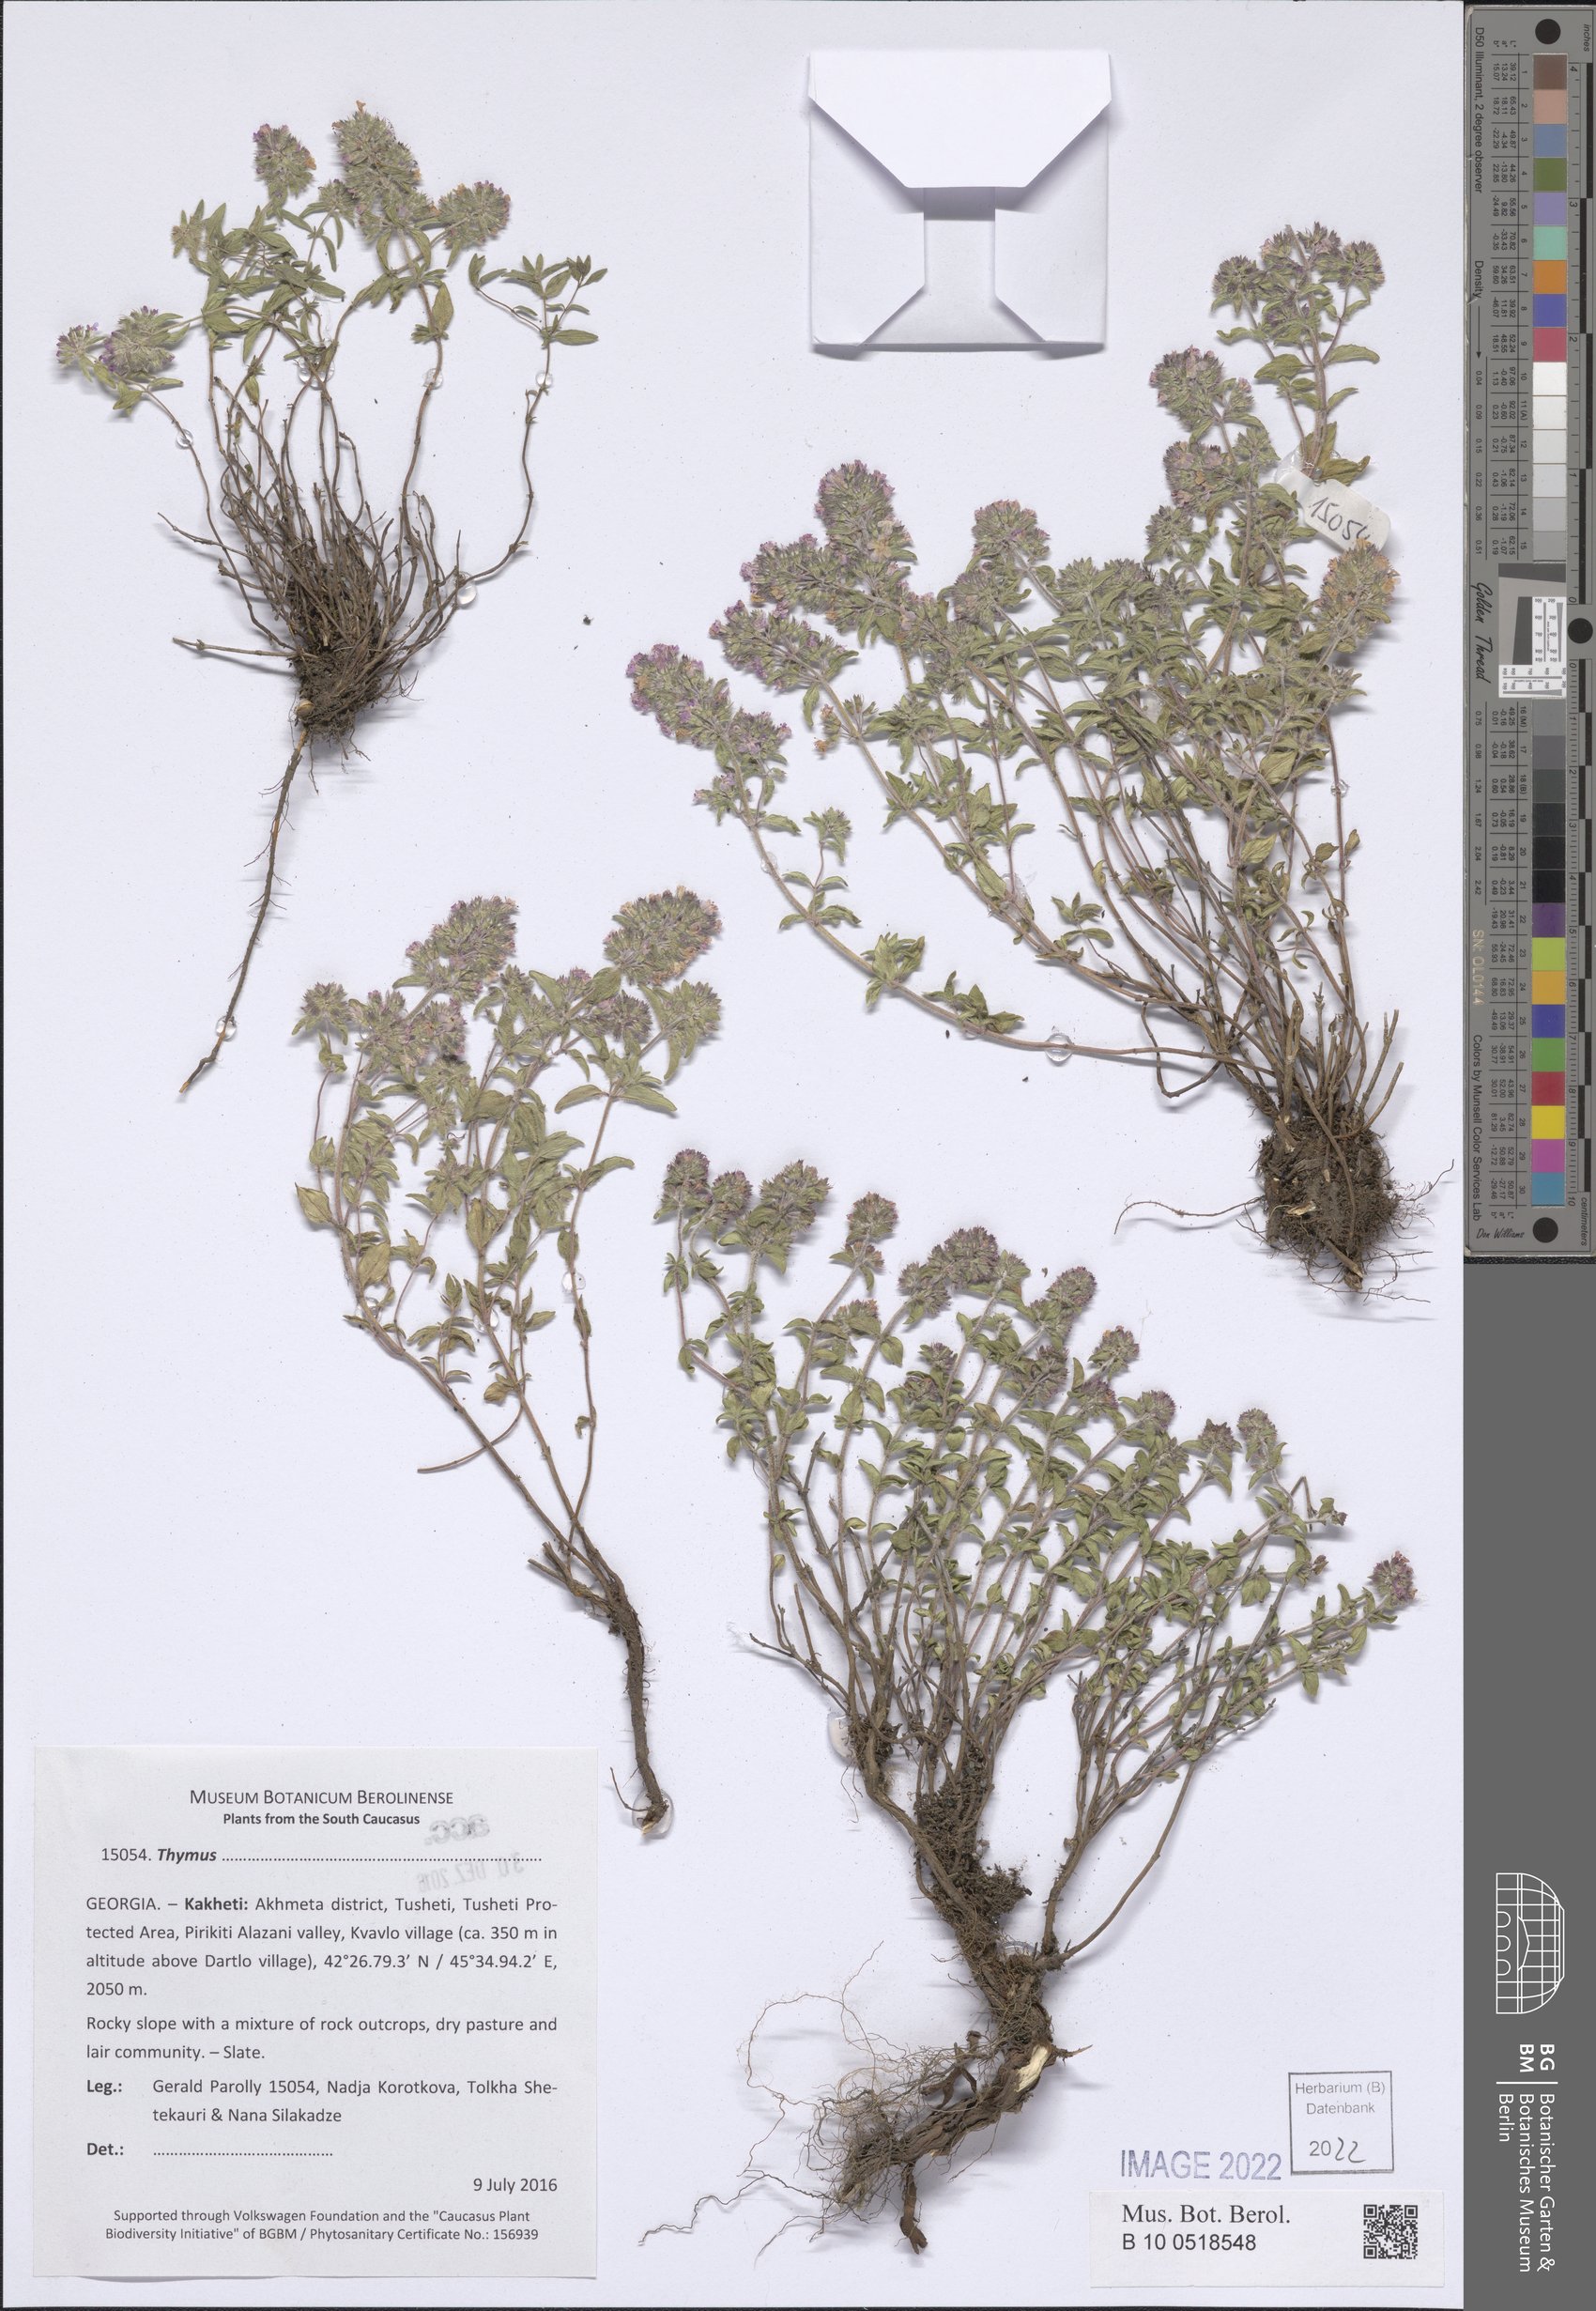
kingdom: Plantae
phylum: Tracheophyta
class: Magnoliopsida
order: Lamiales
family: Lamiaceae
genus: Thymus
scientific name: Thymus
